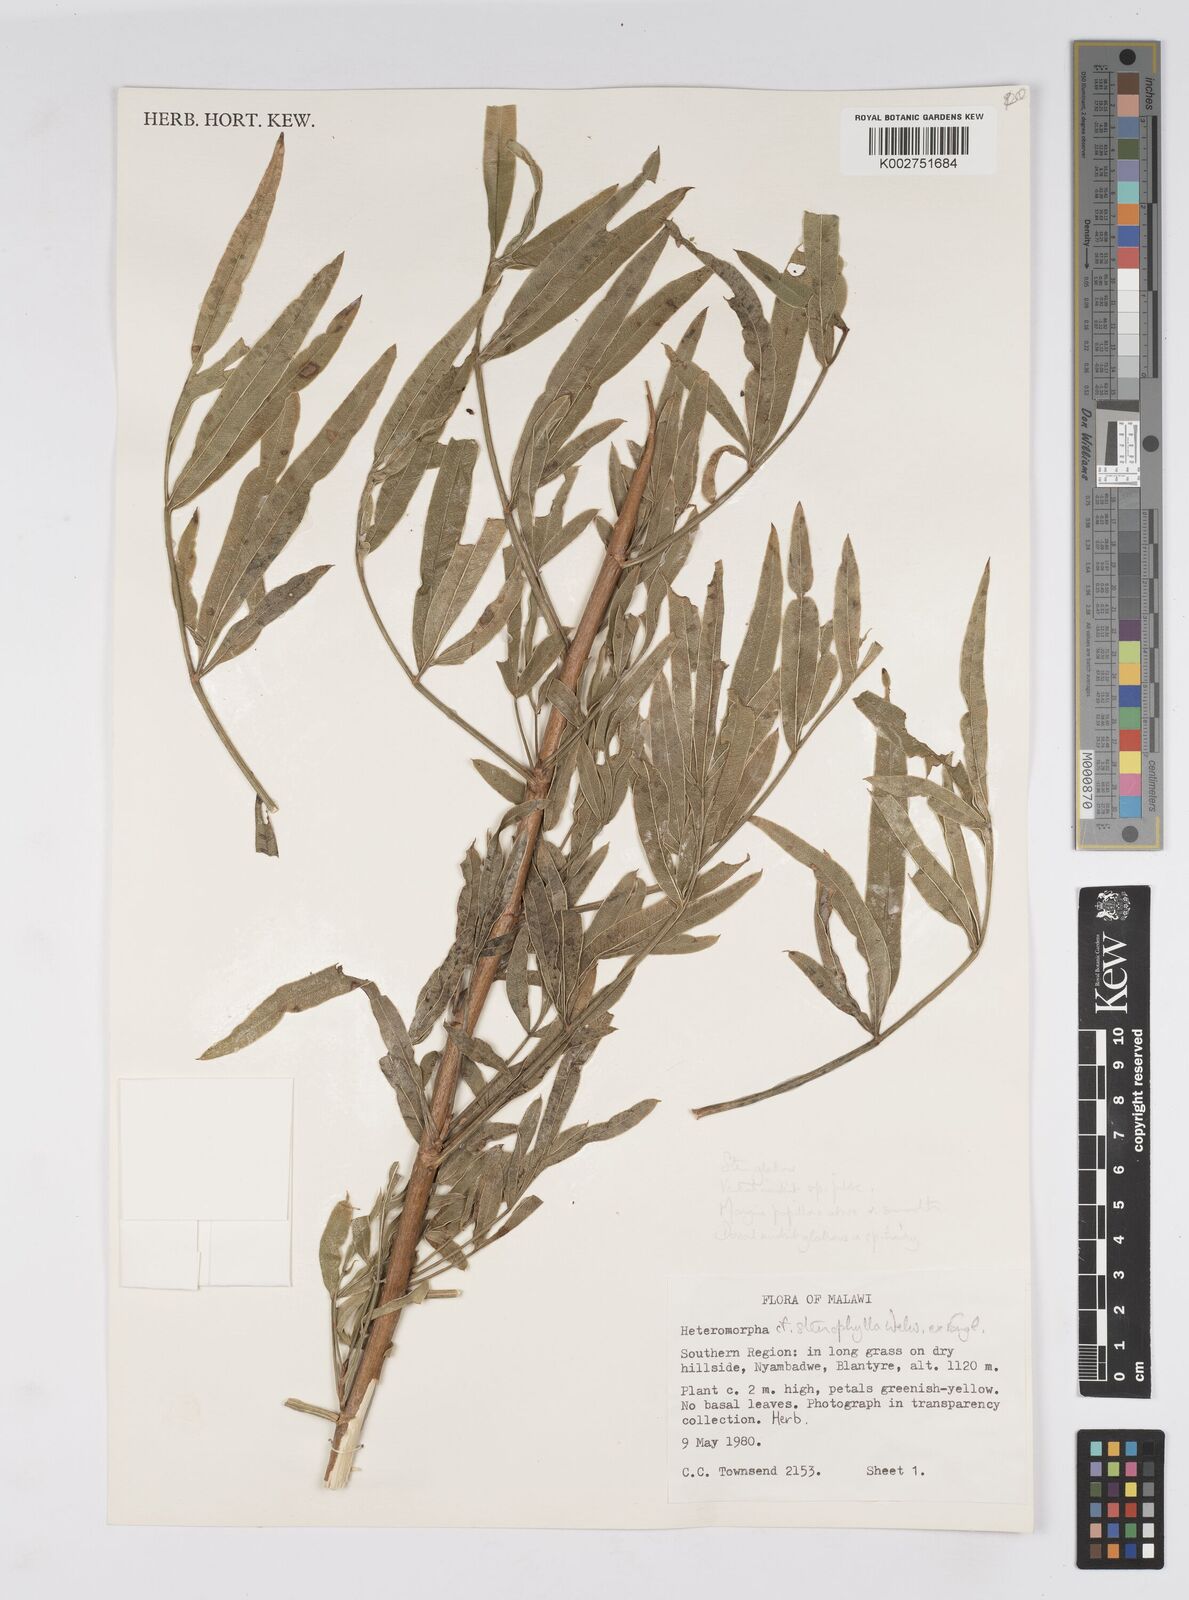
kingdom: Plantae
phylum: Tracheophyta
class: Magnoliopsida
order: Apiales
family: Apiaceae
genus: Heteromorpha
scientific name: Heteromorpha stenophylla
